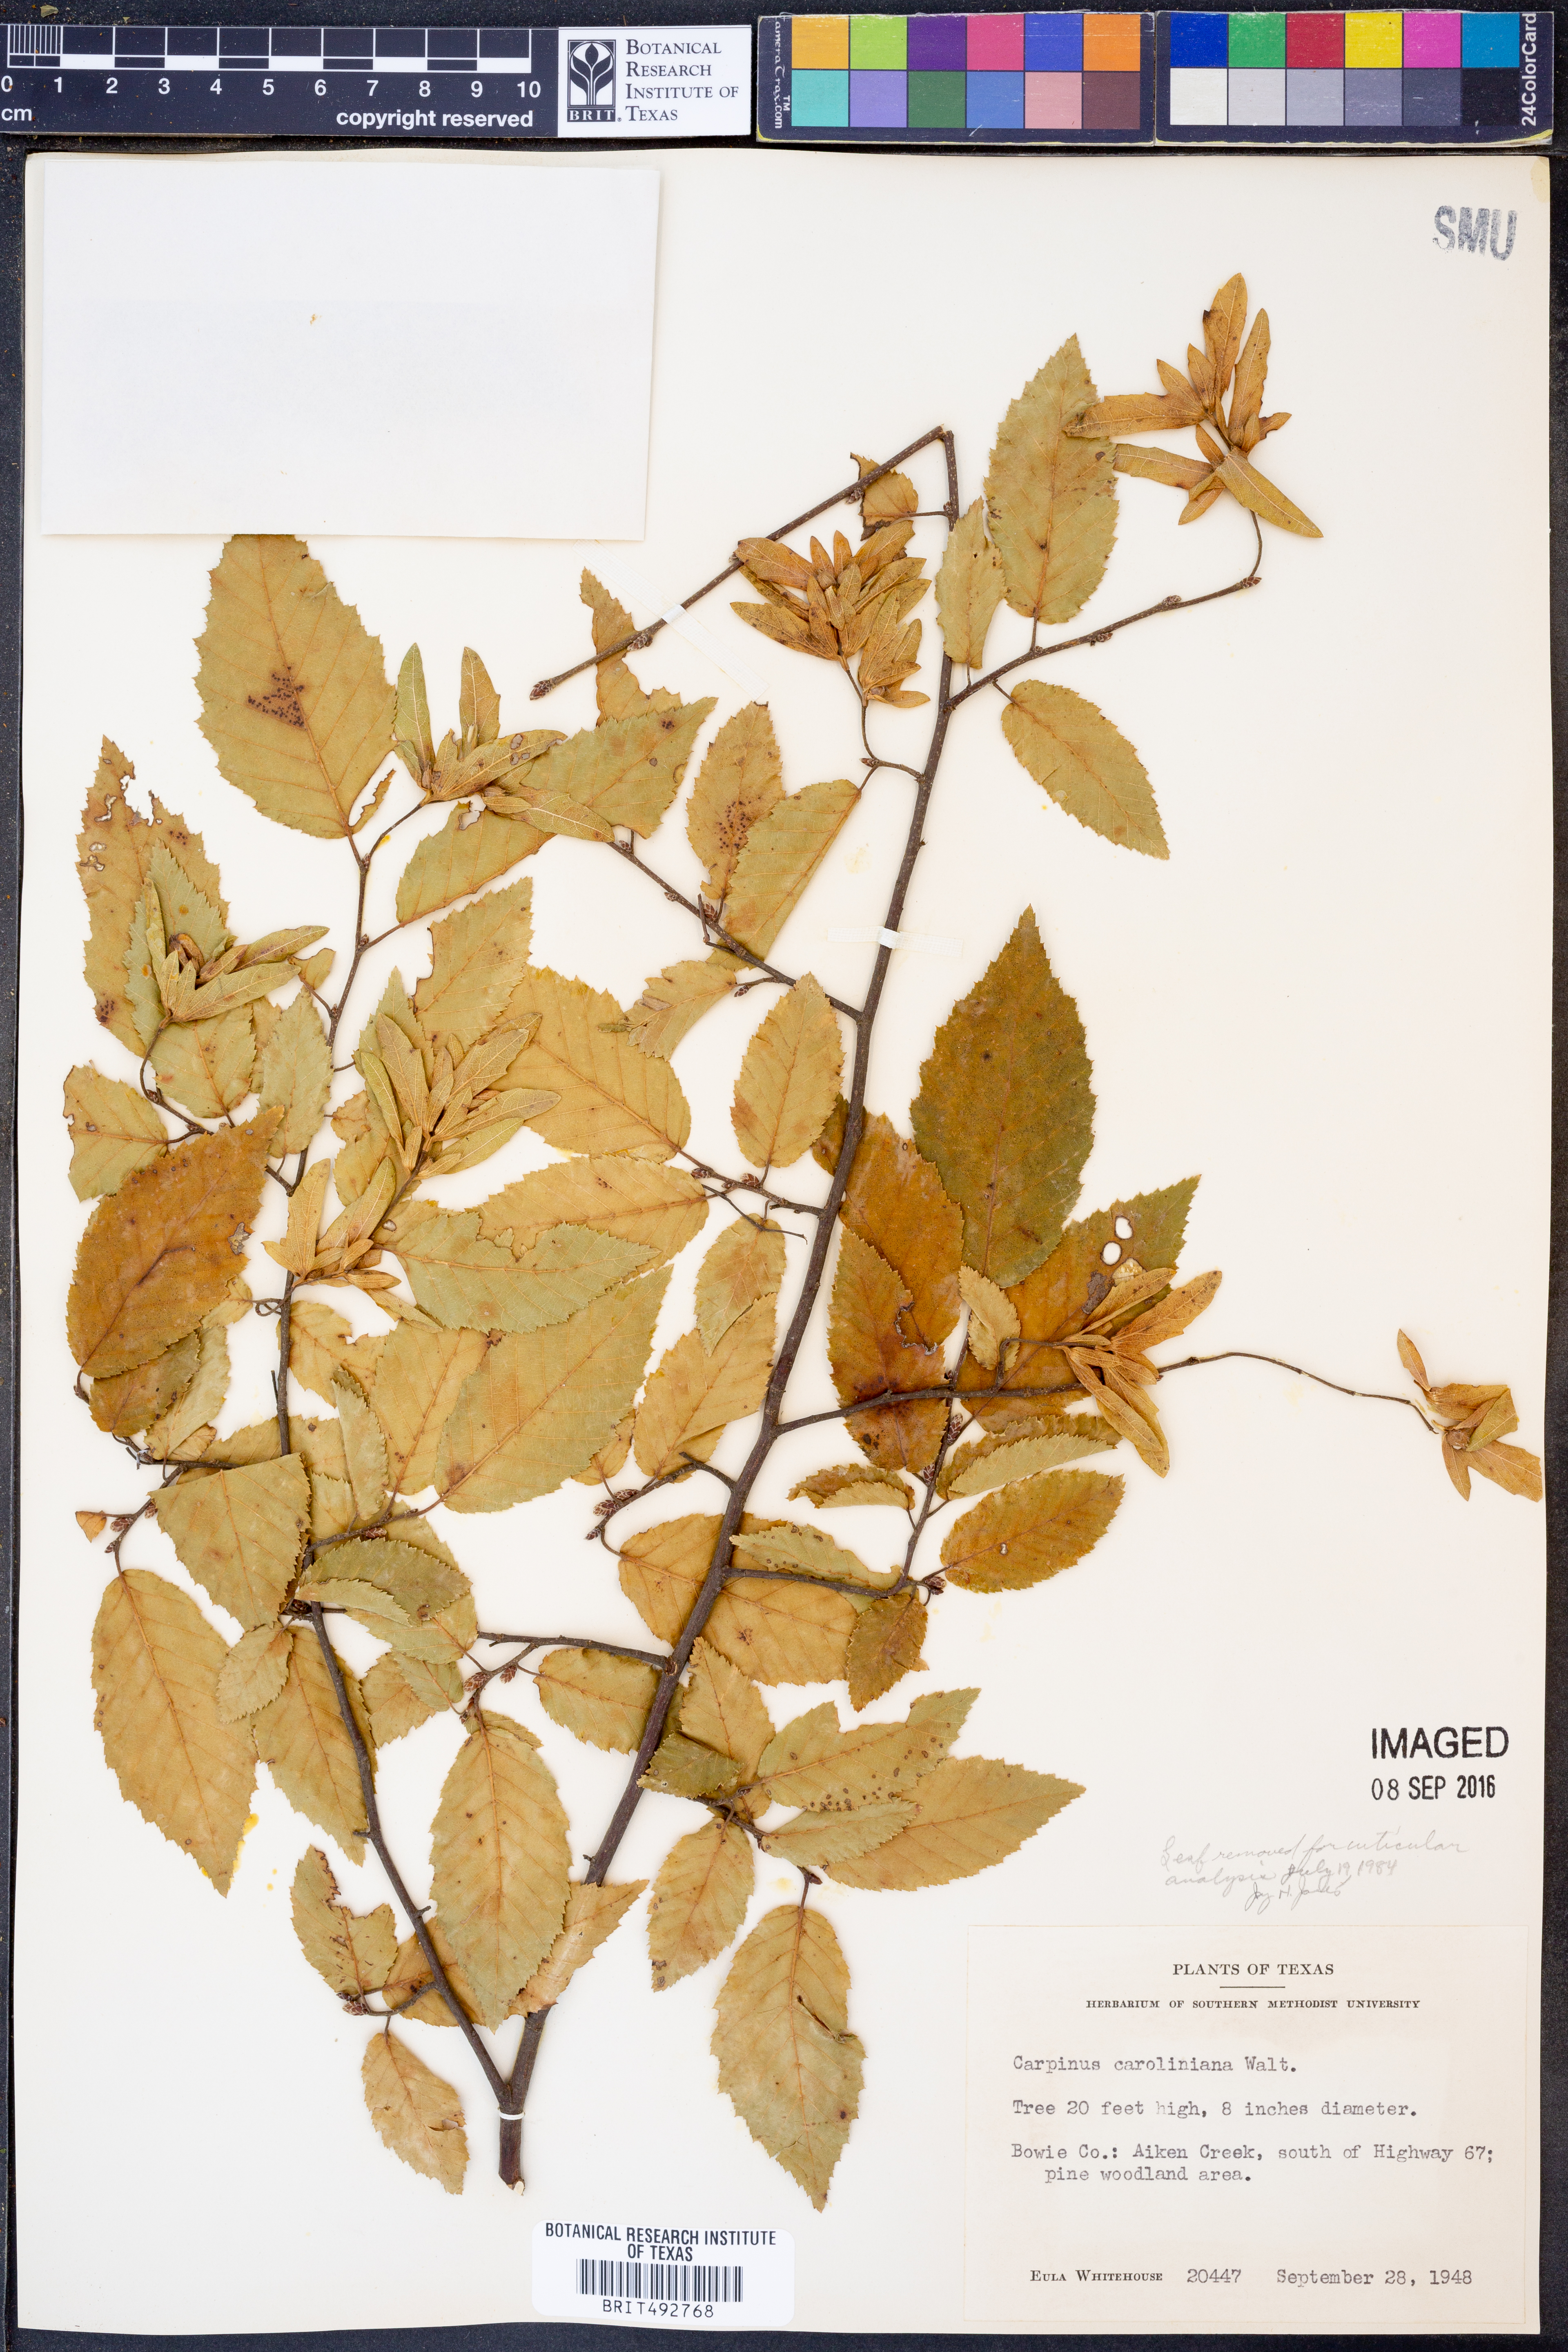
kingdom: Plantae
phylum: Tracheophyta
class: Magnoliopsida
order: Fagales
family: Betulaceae
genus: Carpinus
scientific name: Carpinus caroliniana
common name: American hornbeam
